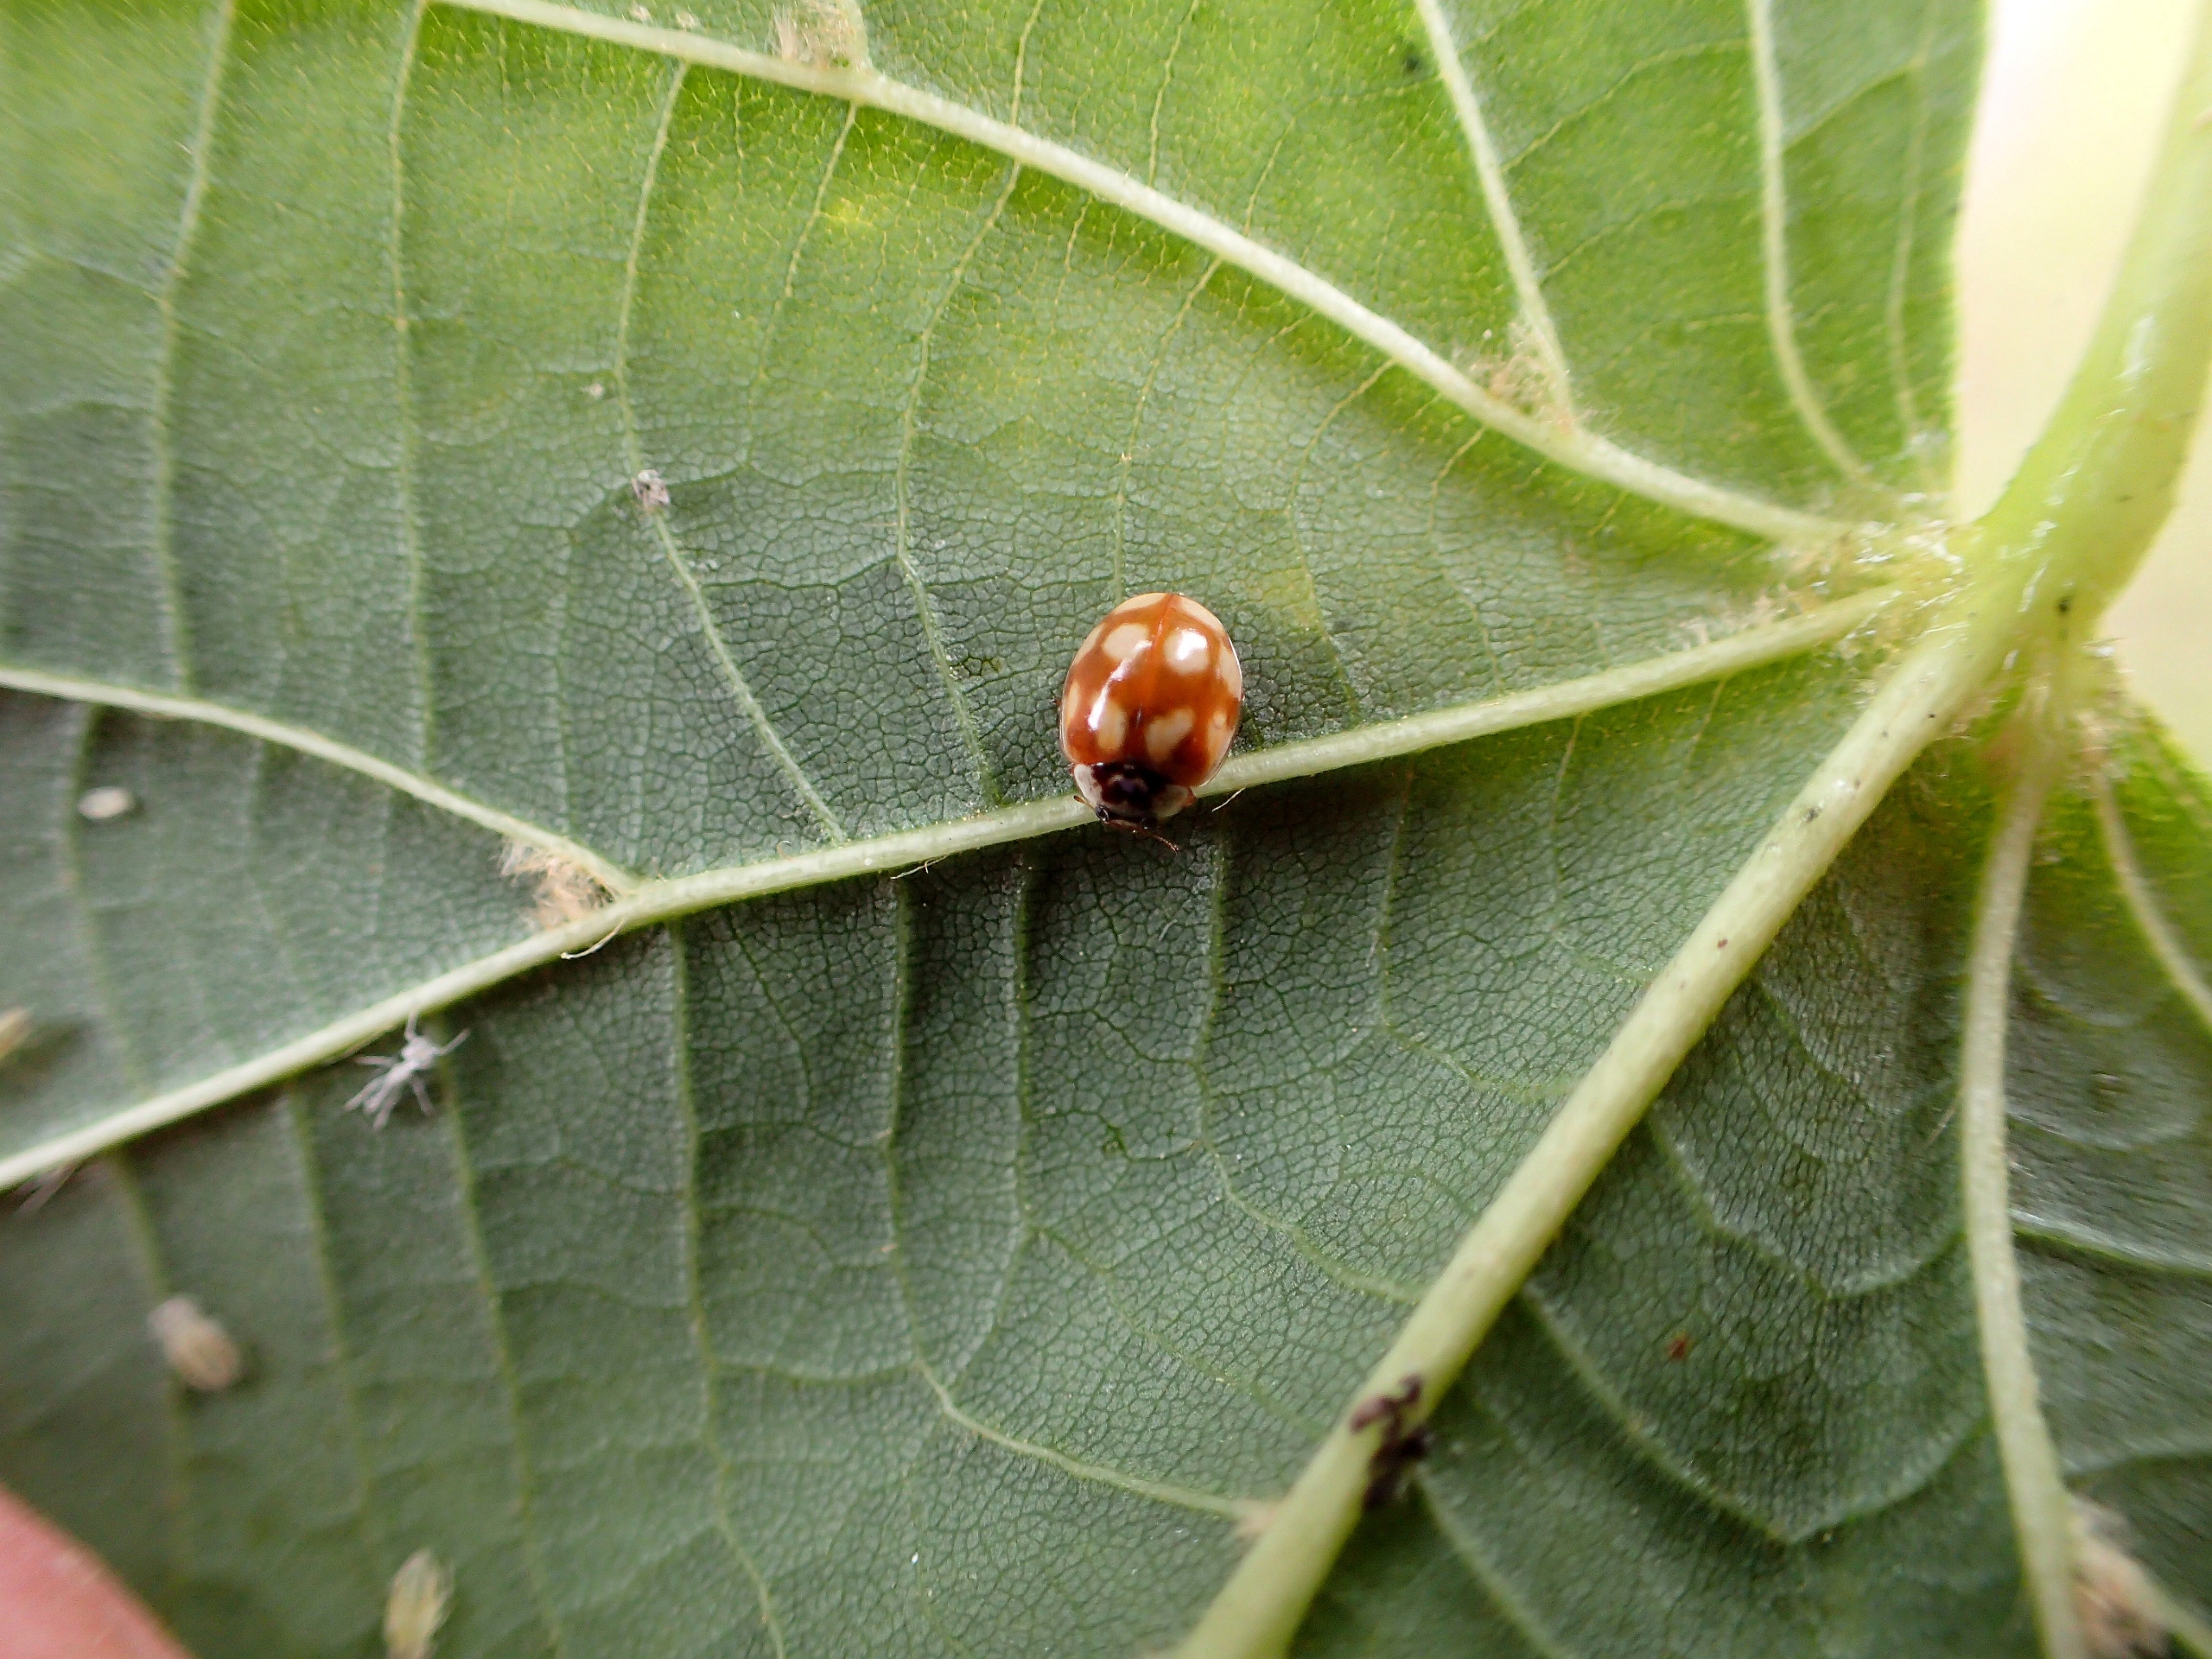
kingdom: Animalia
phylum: Arthropoda
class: Insecta
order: Coleoptera
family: Coccinellidae
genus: Adalia
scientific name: Adalia decempunctata
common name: Tiplettet mariehøne
